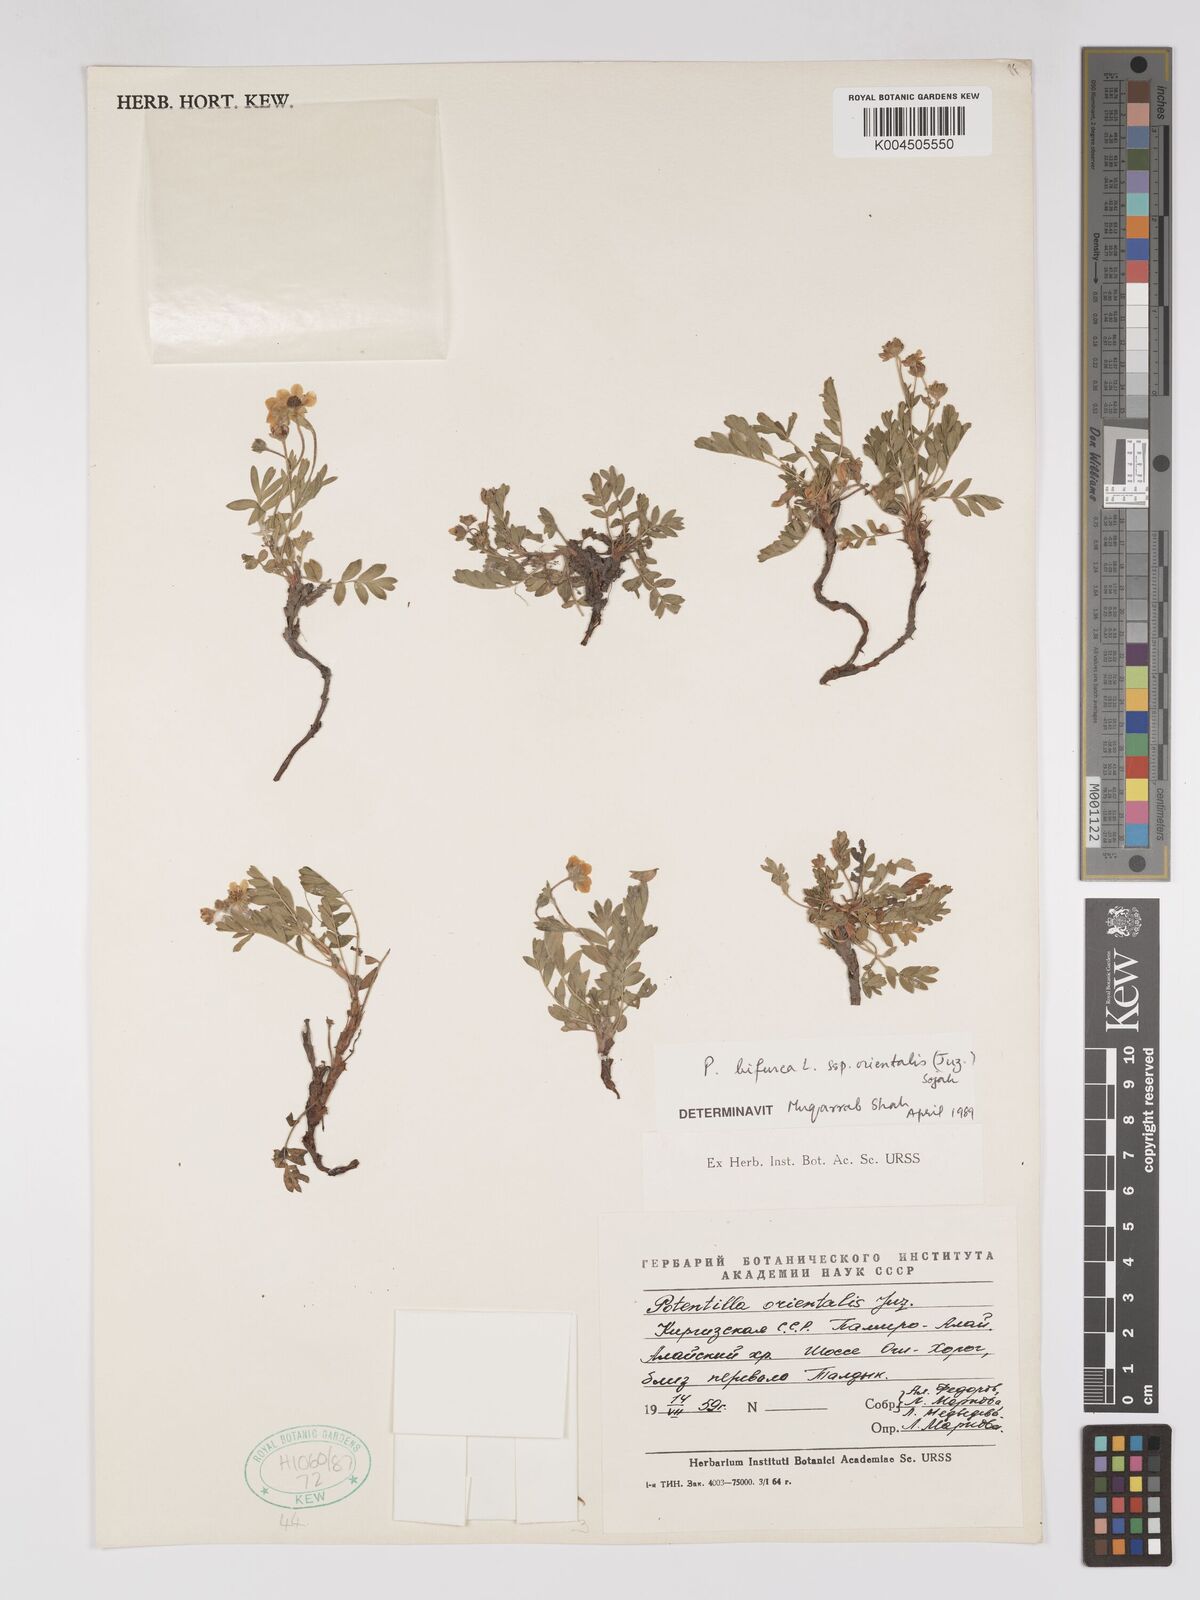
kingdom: Plantae
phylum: Tracheophyta
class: Magnoliopsida
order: Rosales
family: Rosaceae
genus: Sibbaldianthe
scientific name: Sibbaldianthe orientalis
